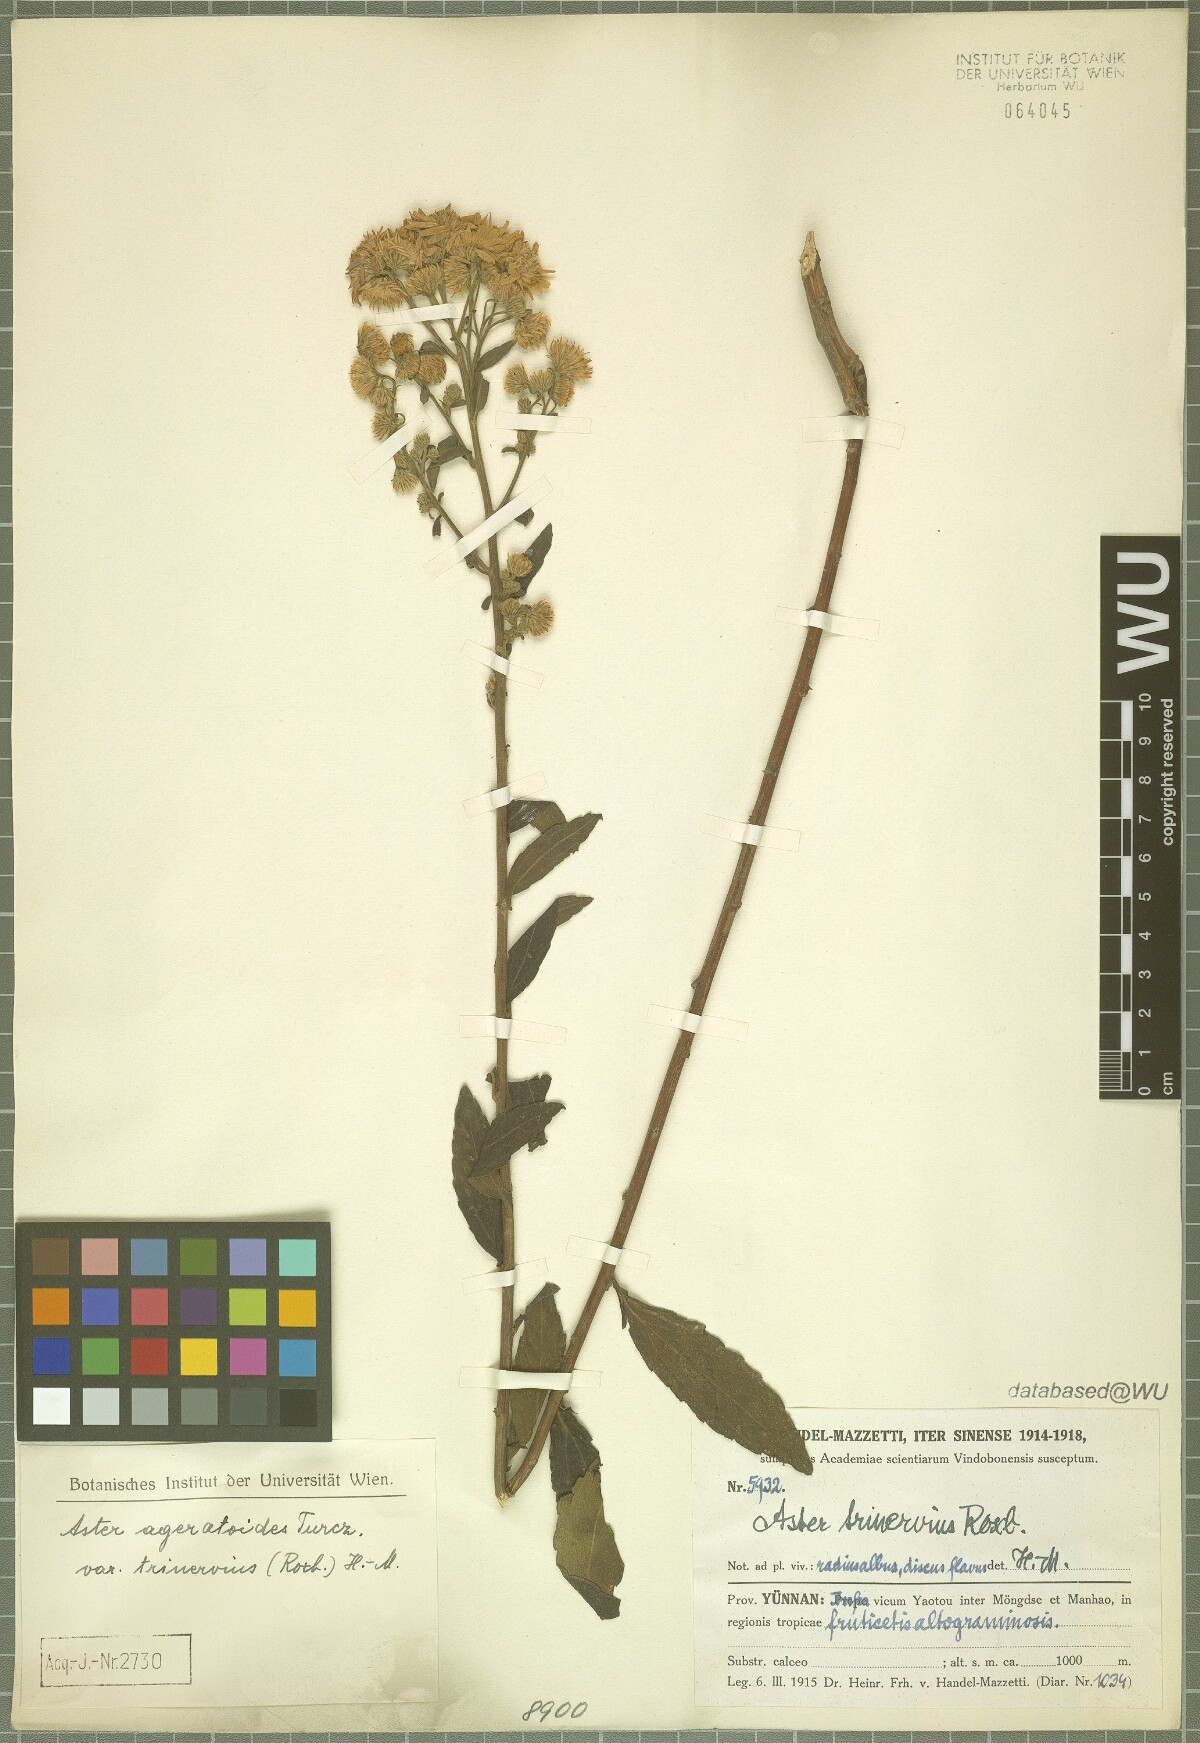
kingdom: Plantae
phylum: Tracheophyta
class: Magnoliopsida
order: Asterales
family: Asteraceae
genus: Aster
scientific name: Aster ageratoides
